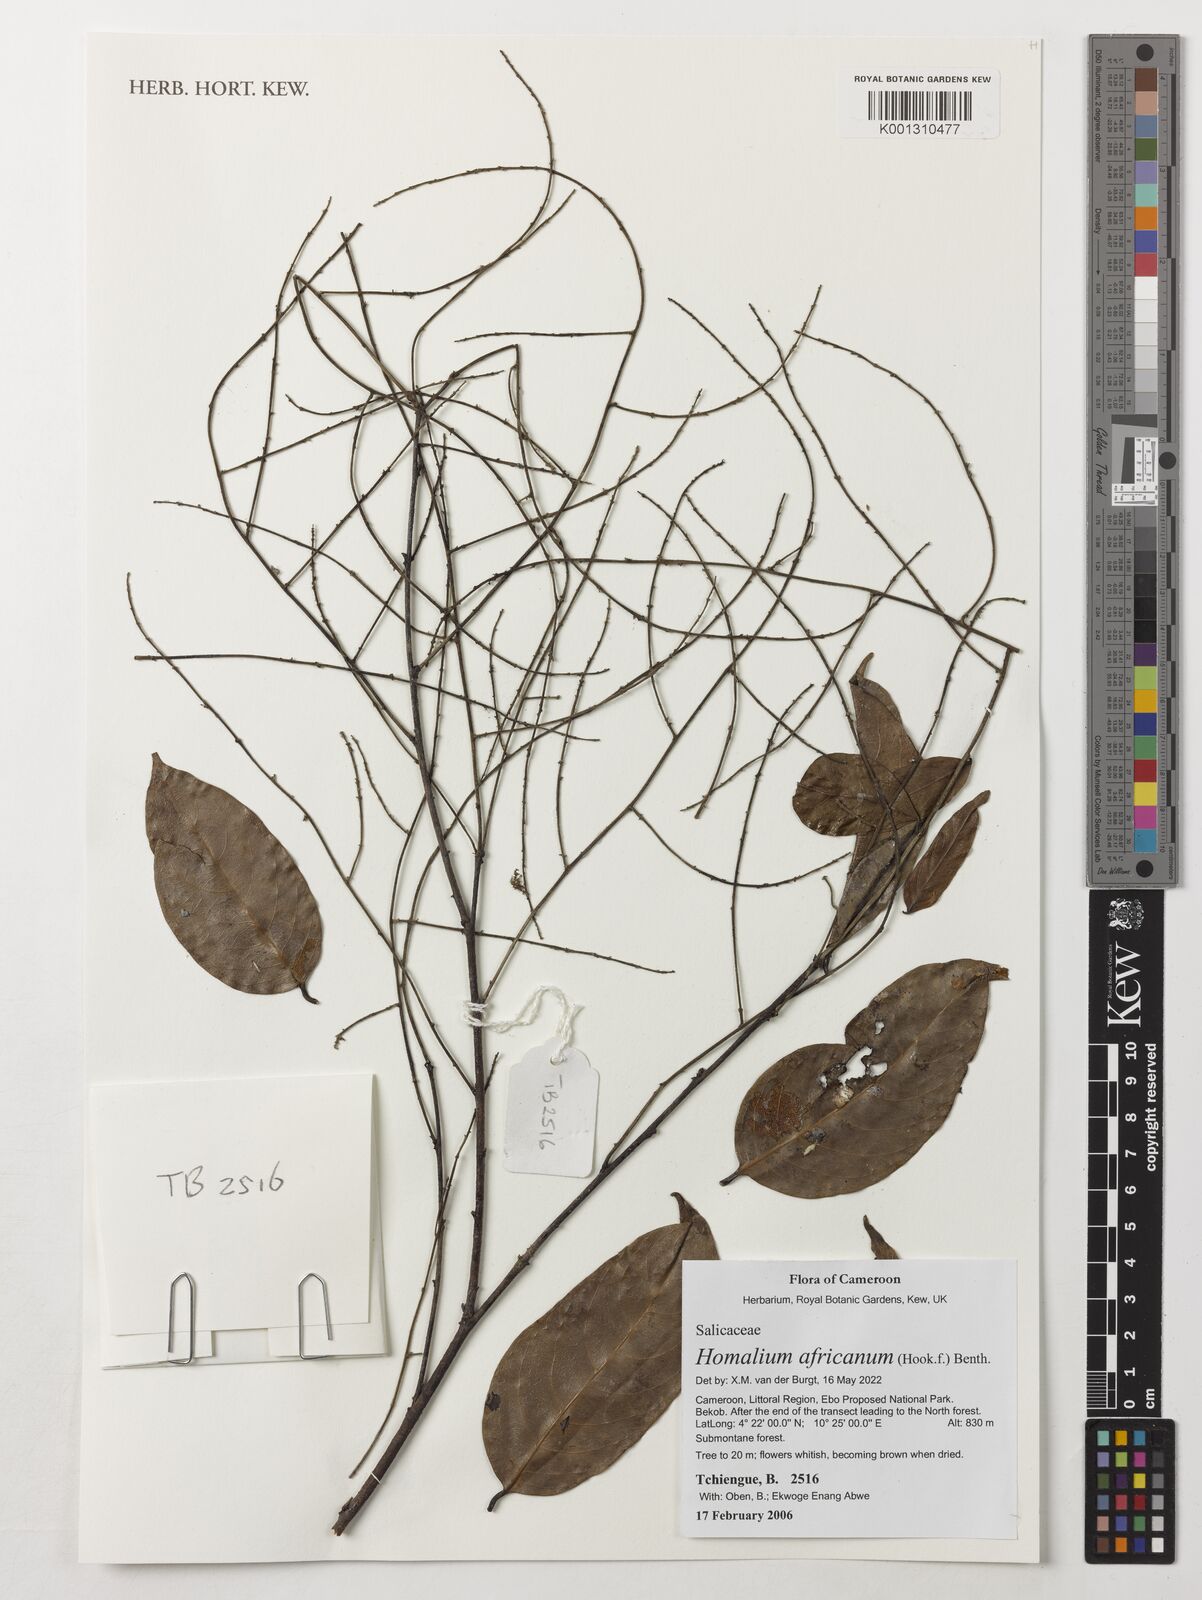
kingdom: Plantae
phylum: Tracheophyta
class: Magnoliopsida
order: Malpighiales
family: Salicaceae
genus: Homalium
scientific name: Homalium africanum
